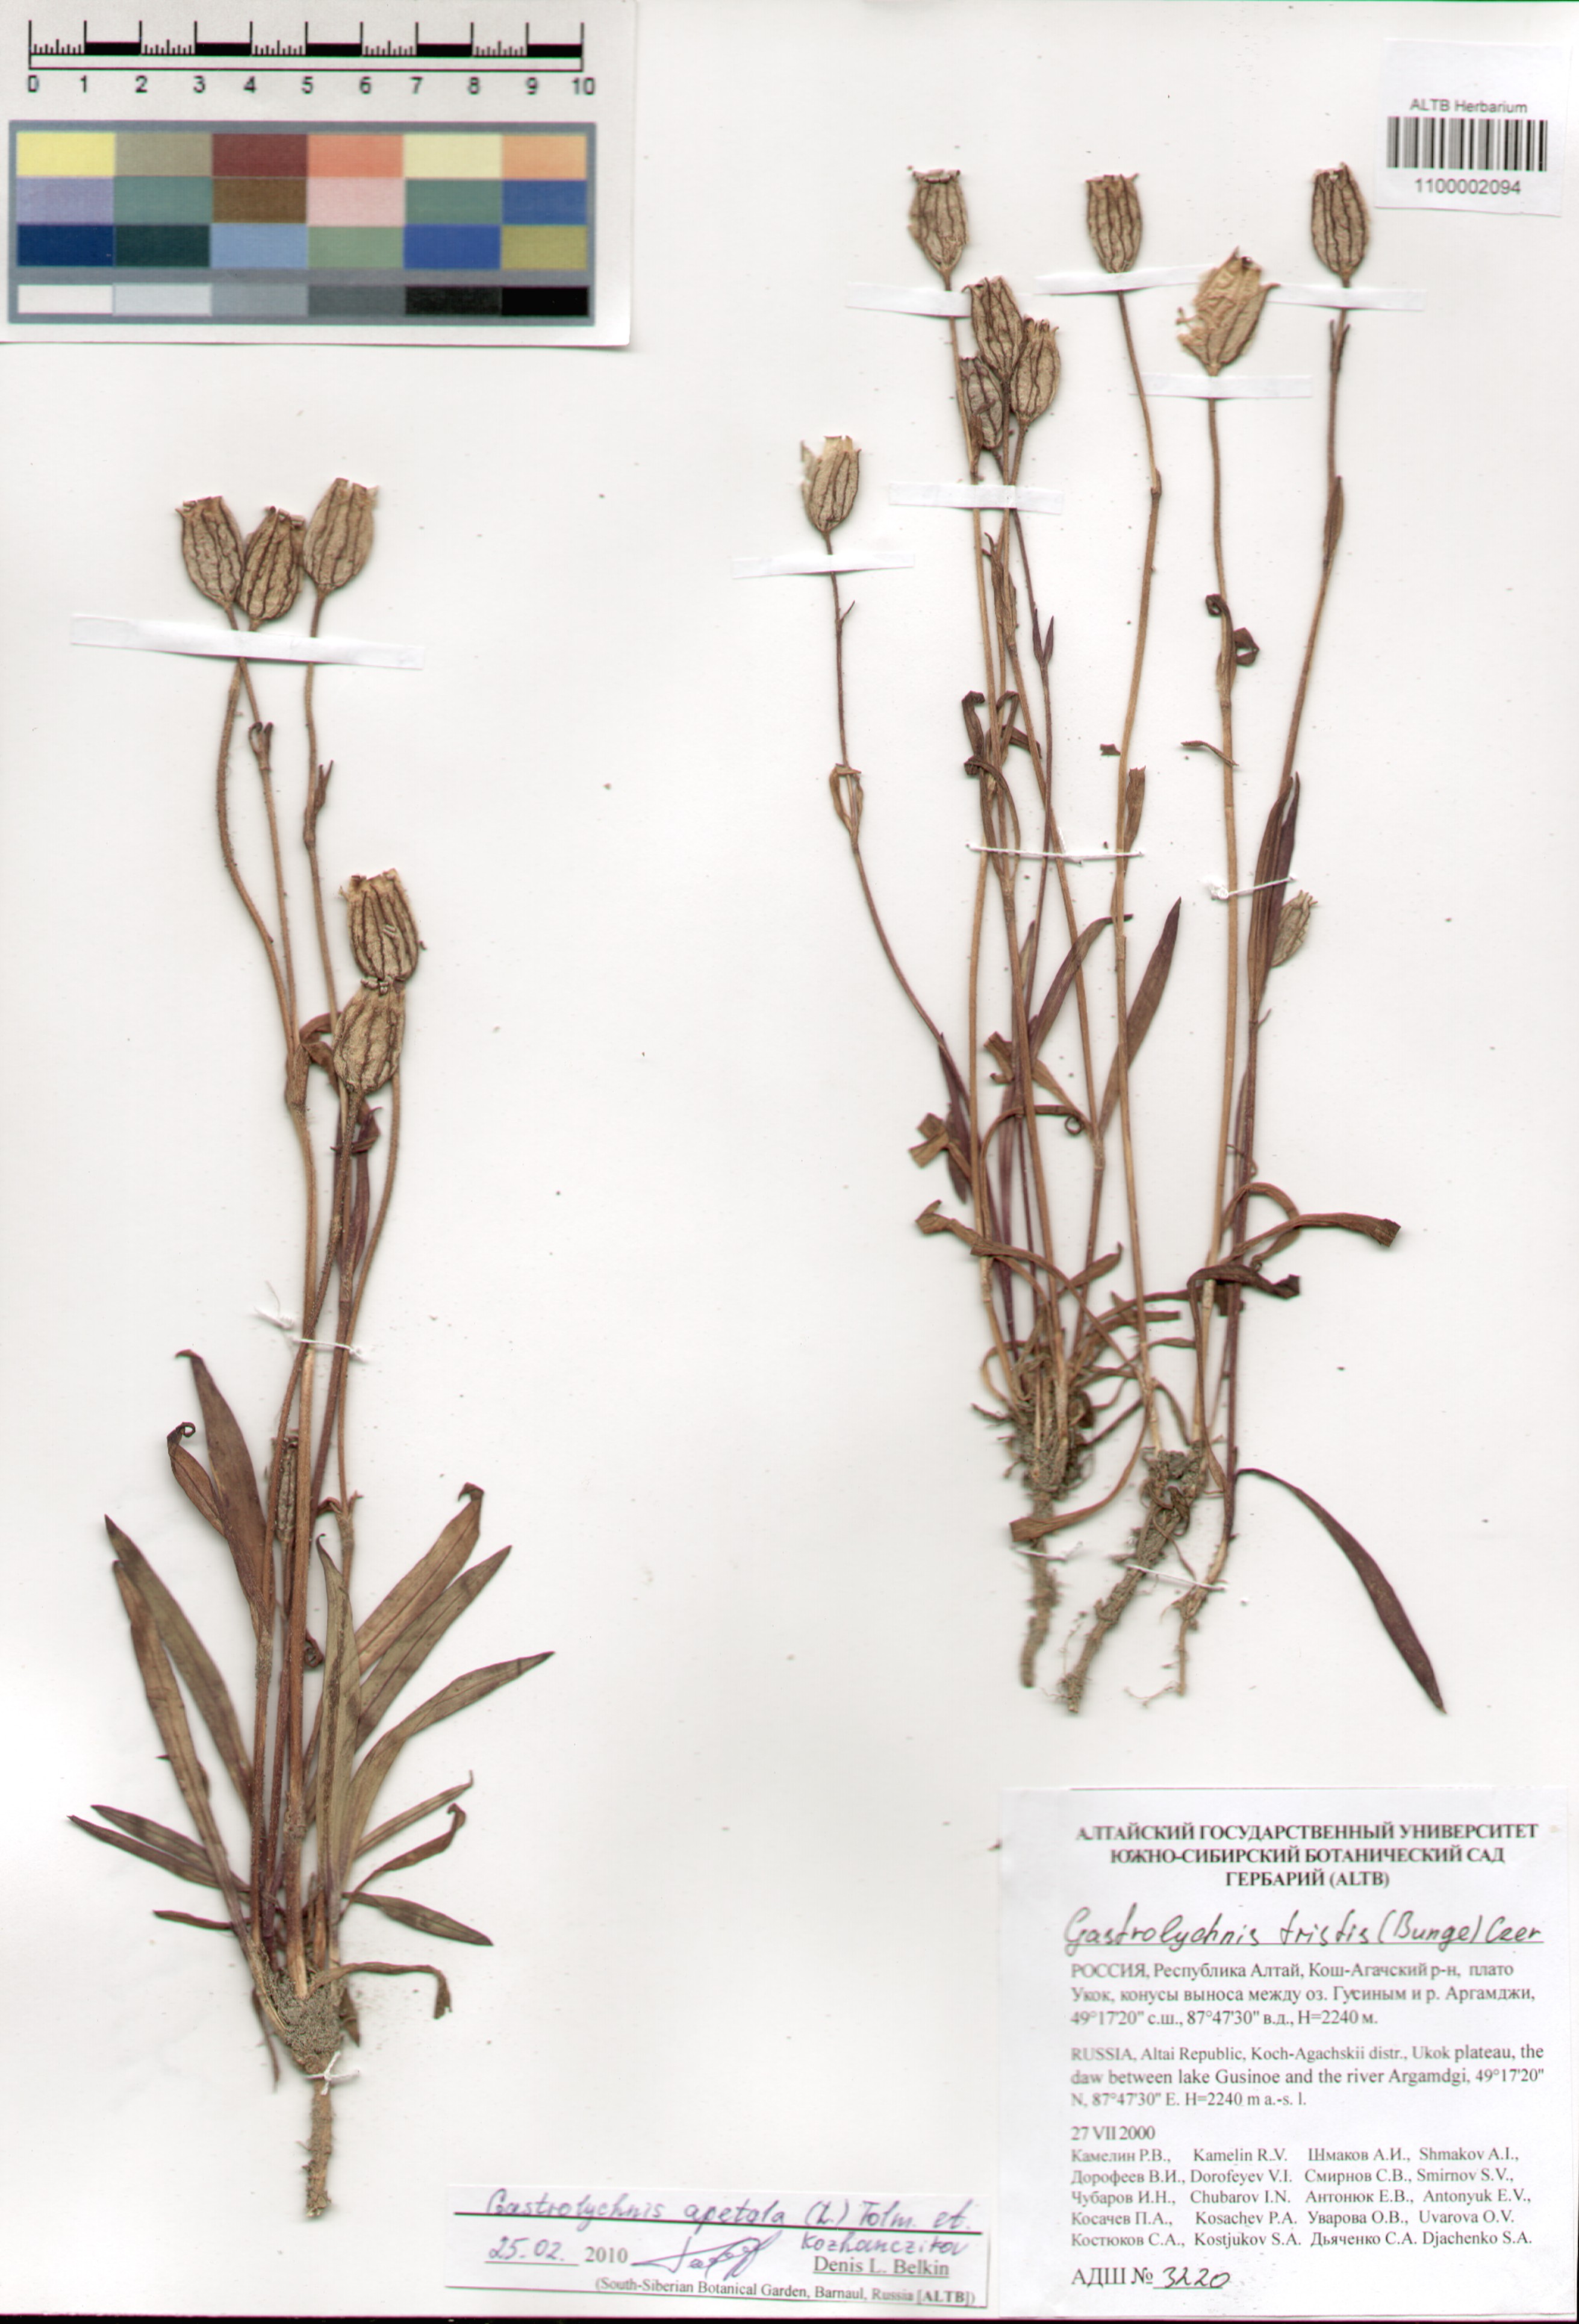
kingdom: Plantae
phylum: Tracheophyta
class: Magnoliopsida
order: Caryophyllales
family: Caryophyllaceae
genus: Silene
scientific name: Silene wahlbergella
